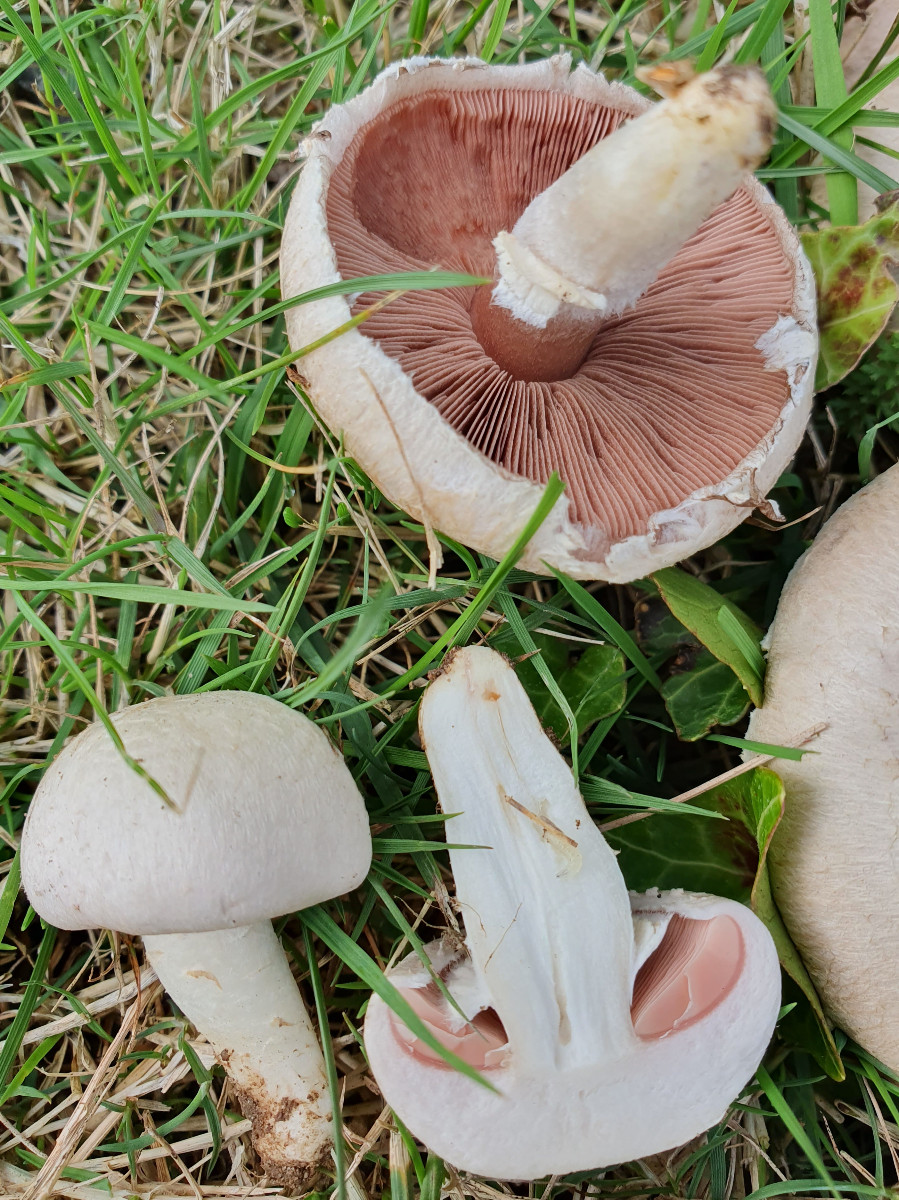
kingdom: Fungi
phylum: Basidiomycota
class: Agaricomycetes
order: Agaricales
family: Agaricaceae
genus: Agaricus
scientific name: Agaricus campestris
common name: mark-champignon
